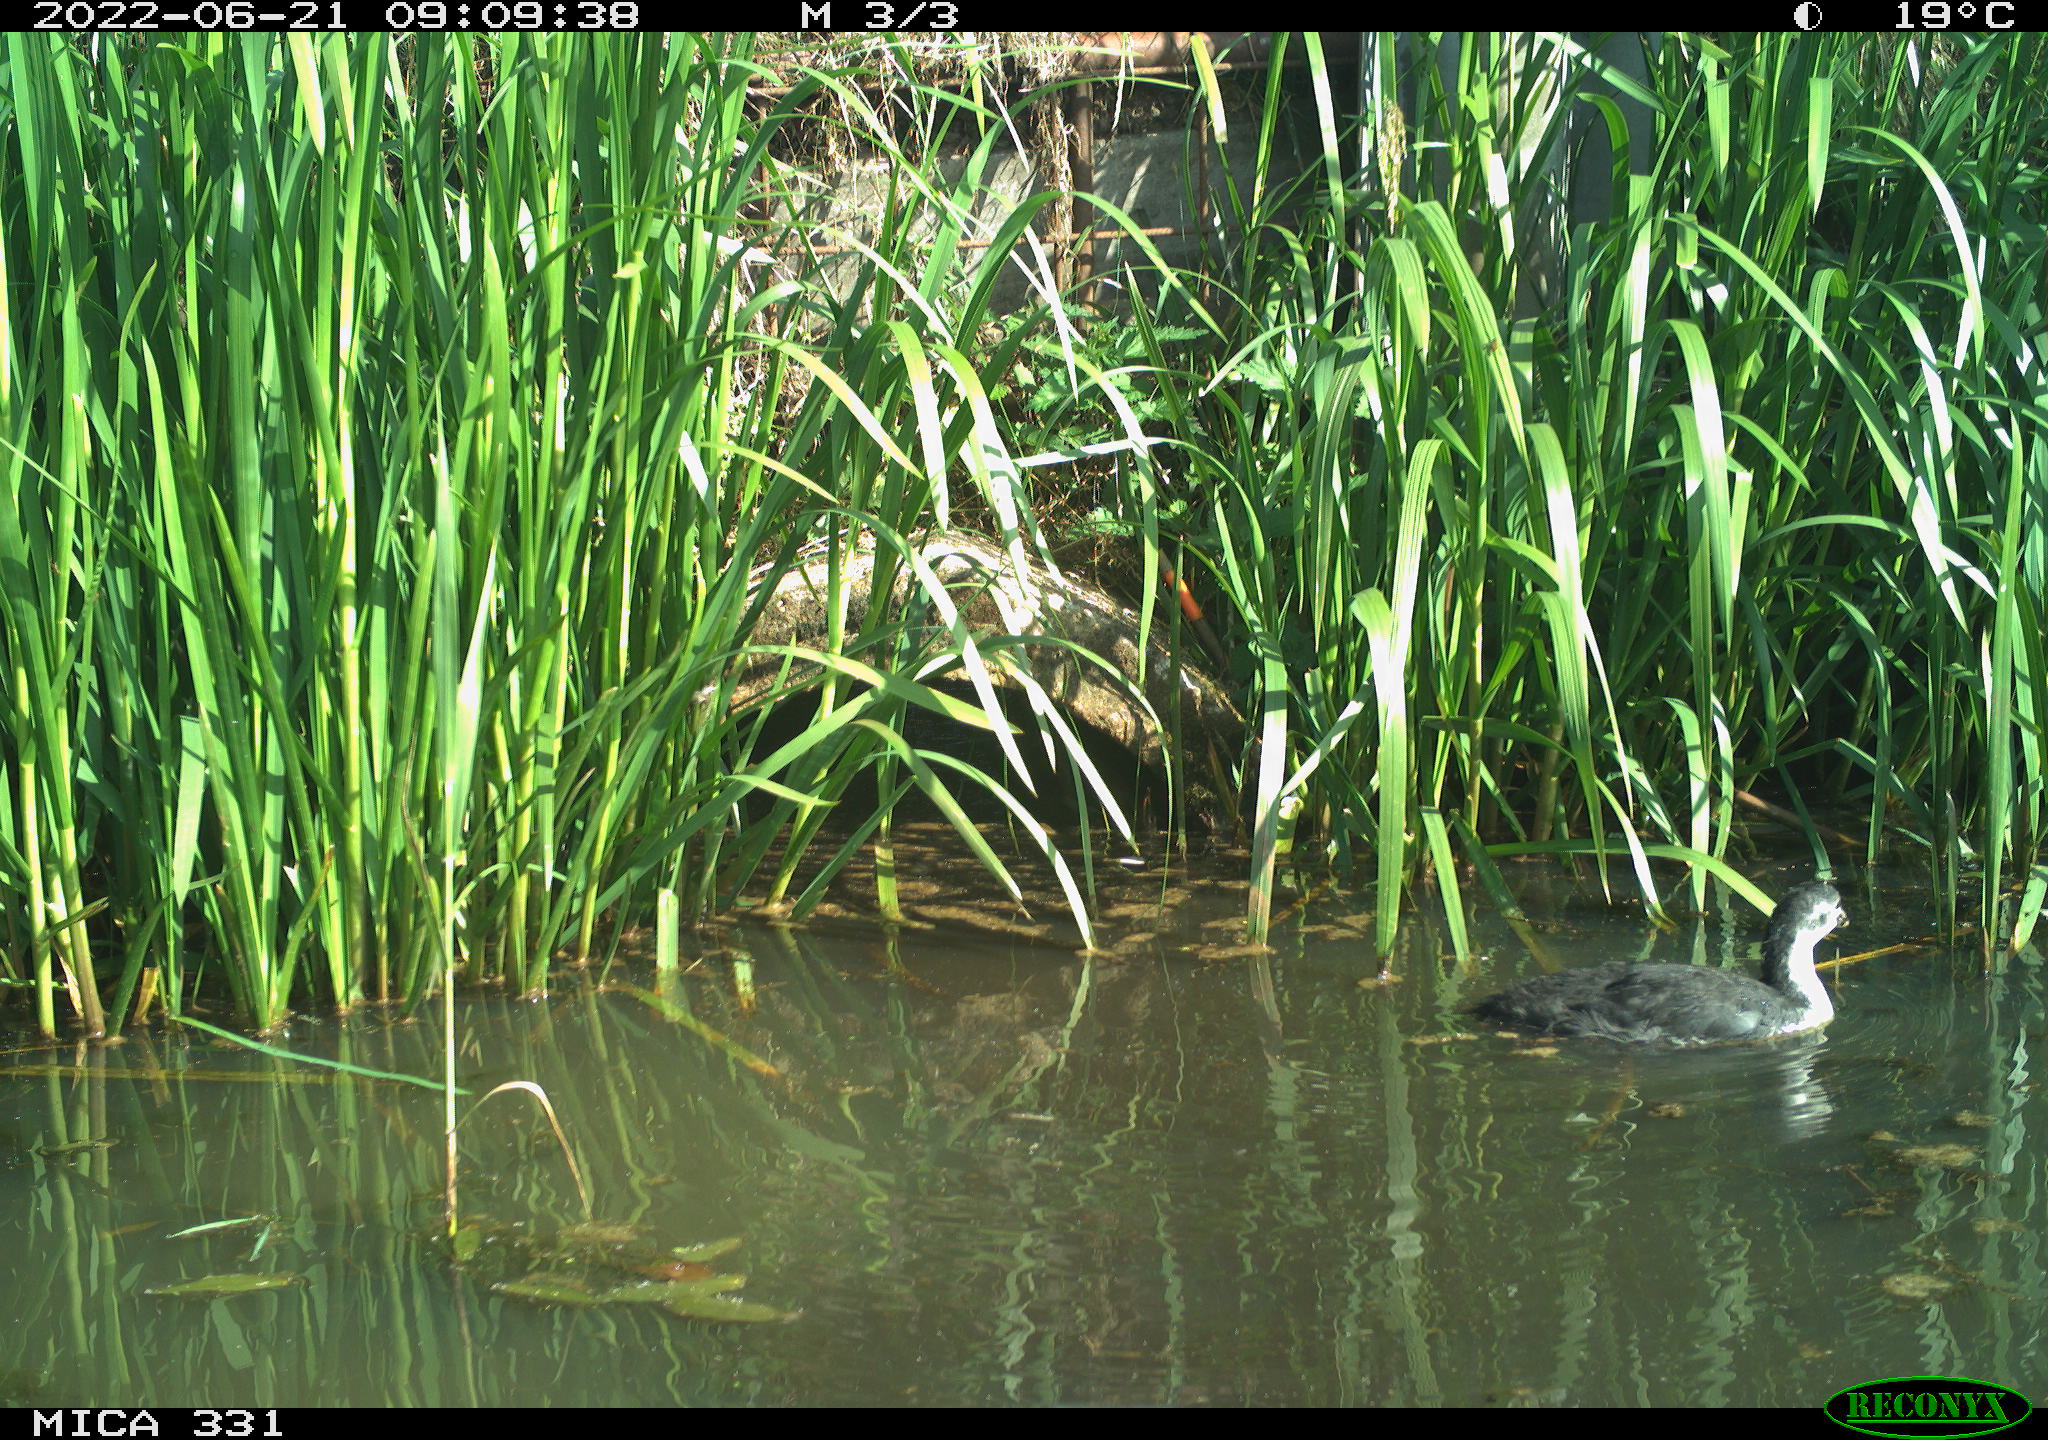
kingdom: Animalia
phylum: Chordata
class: Aves
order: Anseriformes
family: Anatidae
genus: Mareca
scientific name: Mareca strepera
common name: Gadwall
